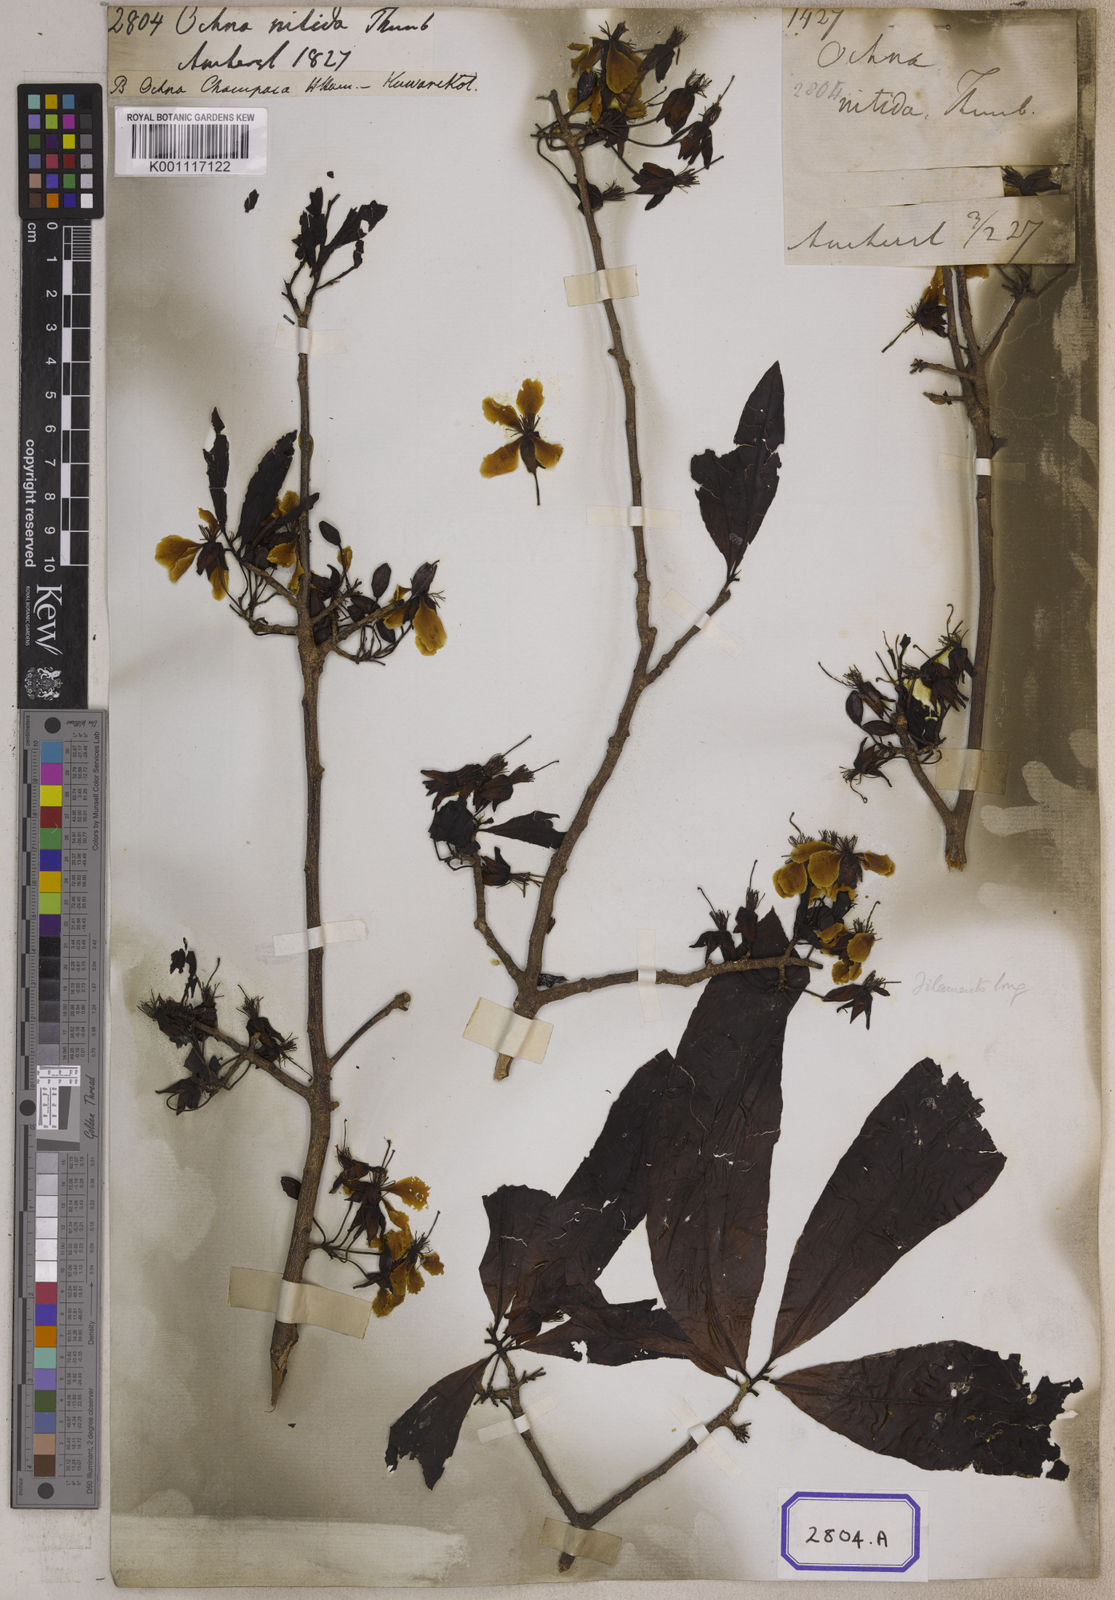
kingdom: Plantae
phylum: Tracheophyta
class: Magnoliopsida
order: Malpighiales
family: Ochnaceae
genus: Ochna
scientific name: Ochna jabotapita
